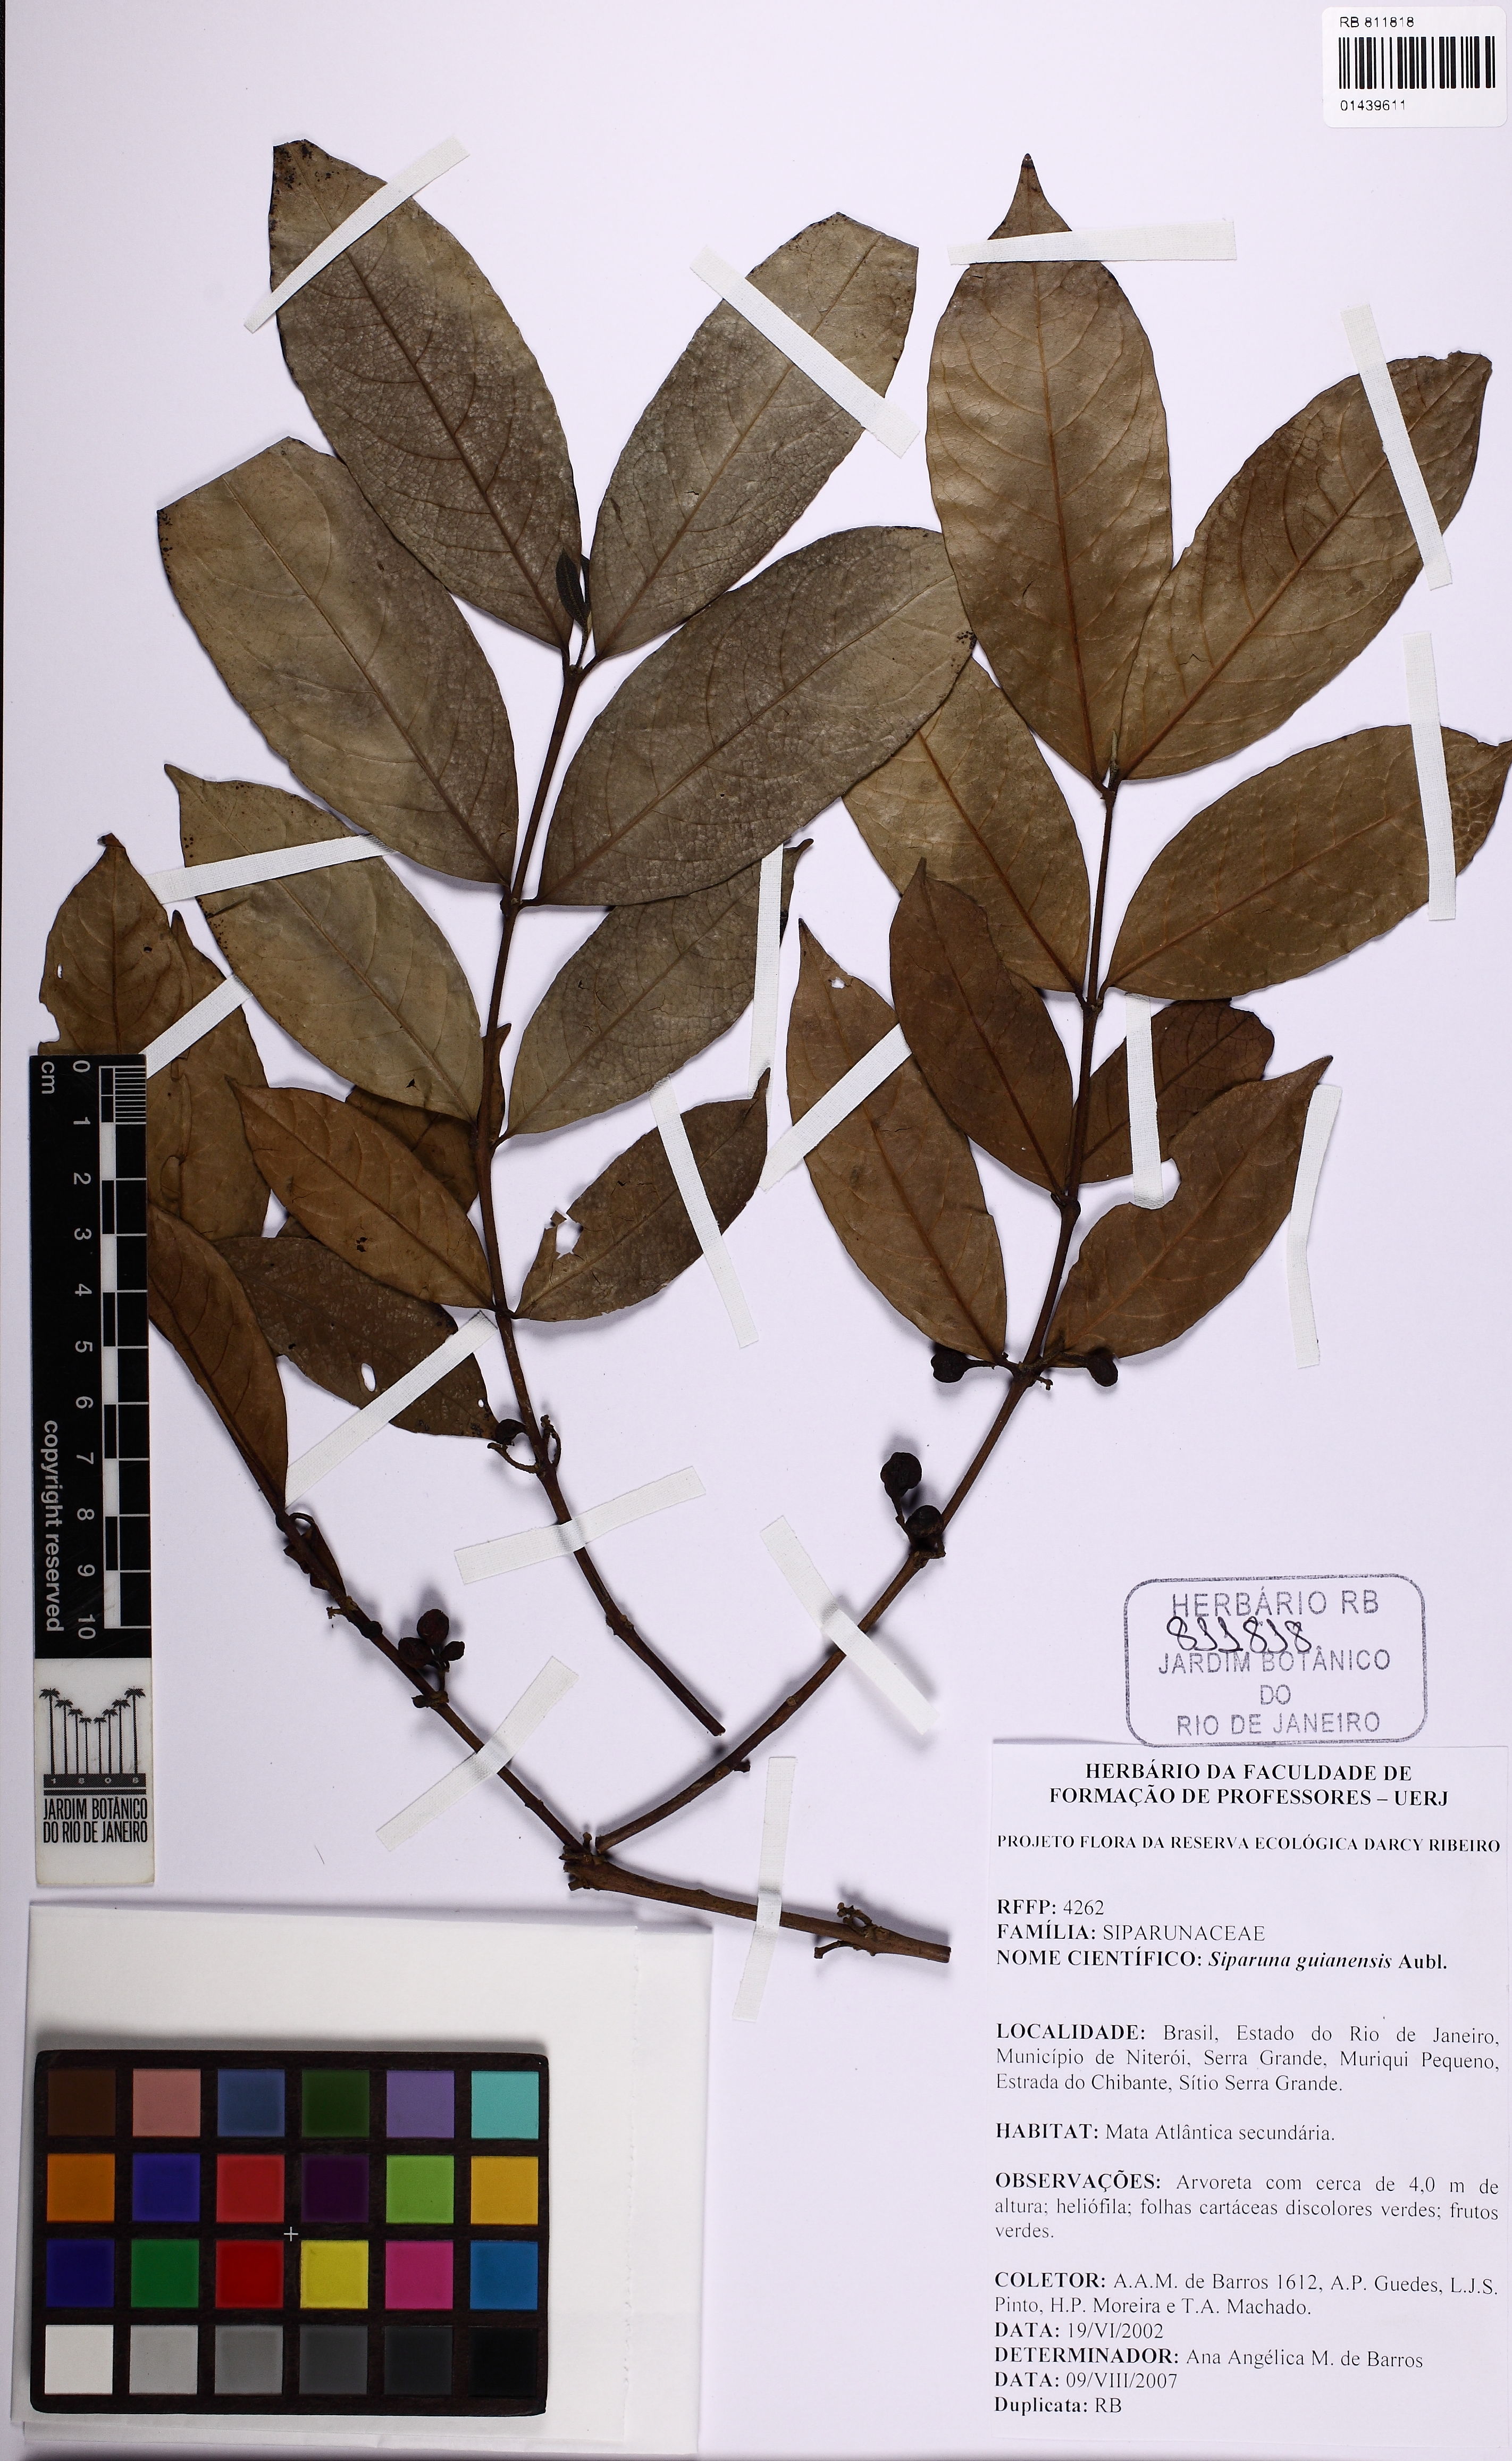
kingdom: Plantae
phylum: Tracheophyta
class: Magnoliopsida
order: Laurales
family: Siparunaceae
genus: Siparuna
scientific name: Siparuna guianensis
